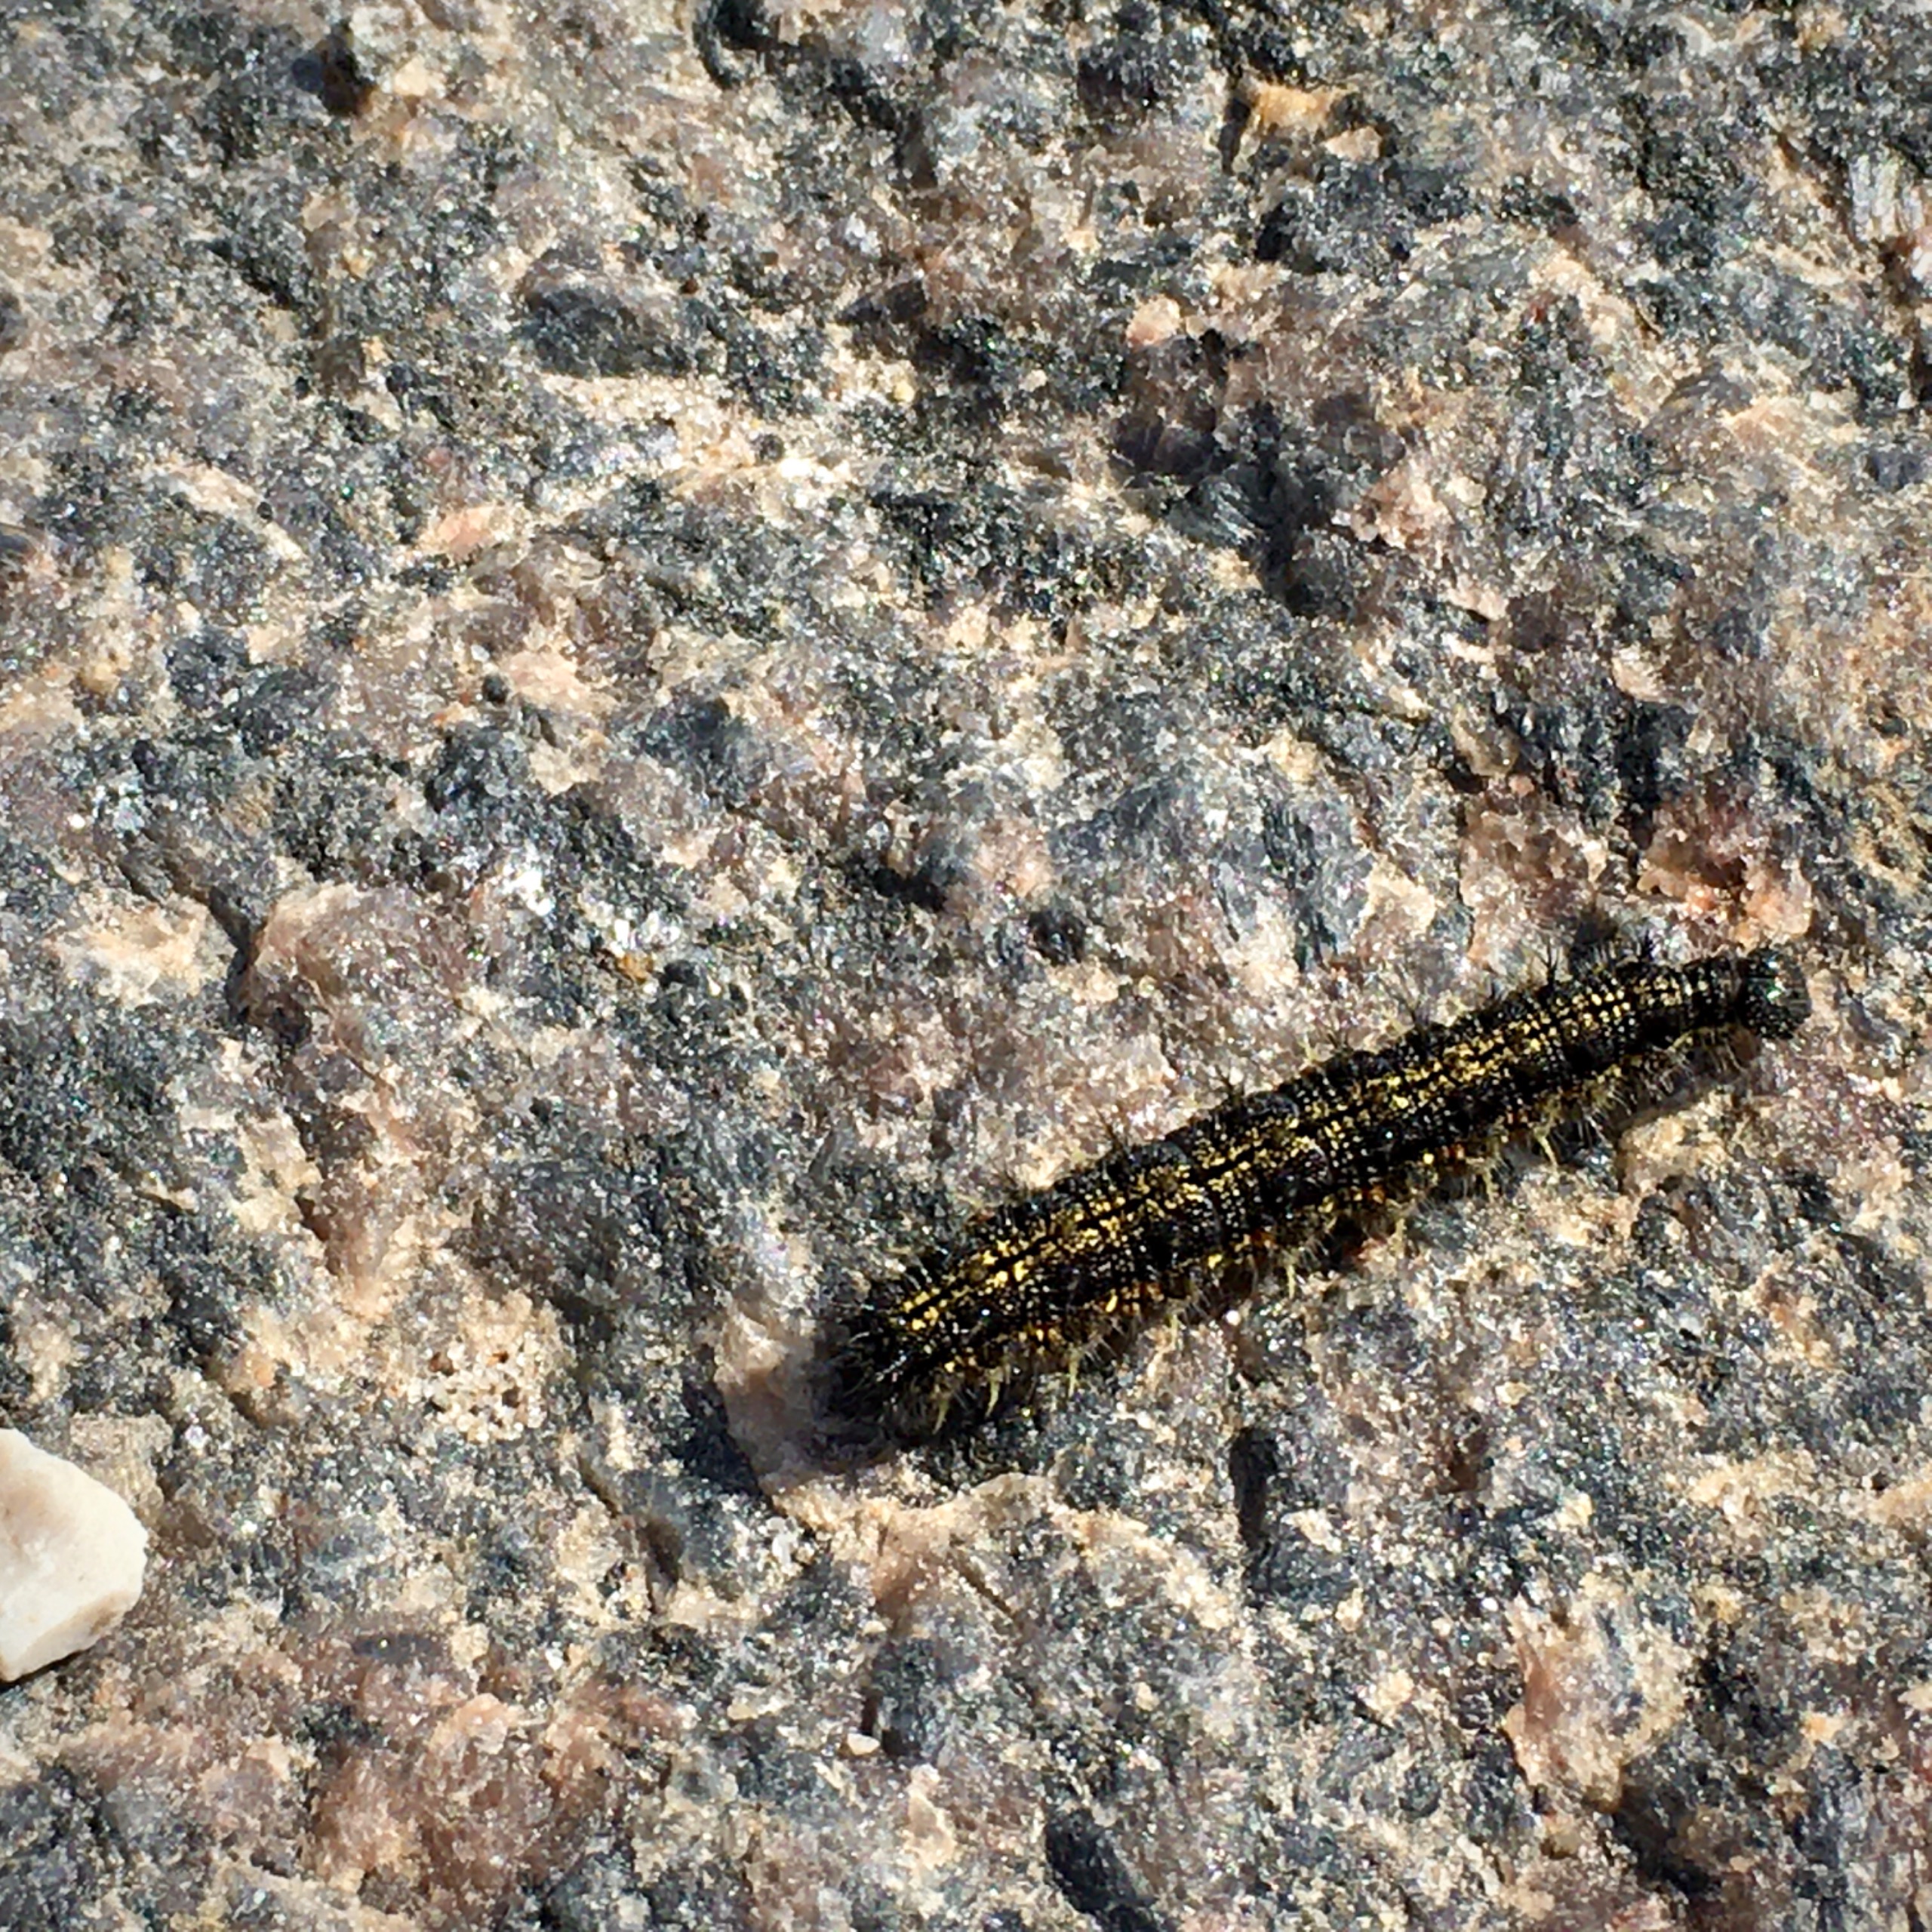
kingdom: Animalia
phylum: Arthropoda
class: Insecta
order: Lepidoptera
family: Nymphalidae
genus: Aglais
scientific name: Aglais urticae
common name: Nældens takvinge
